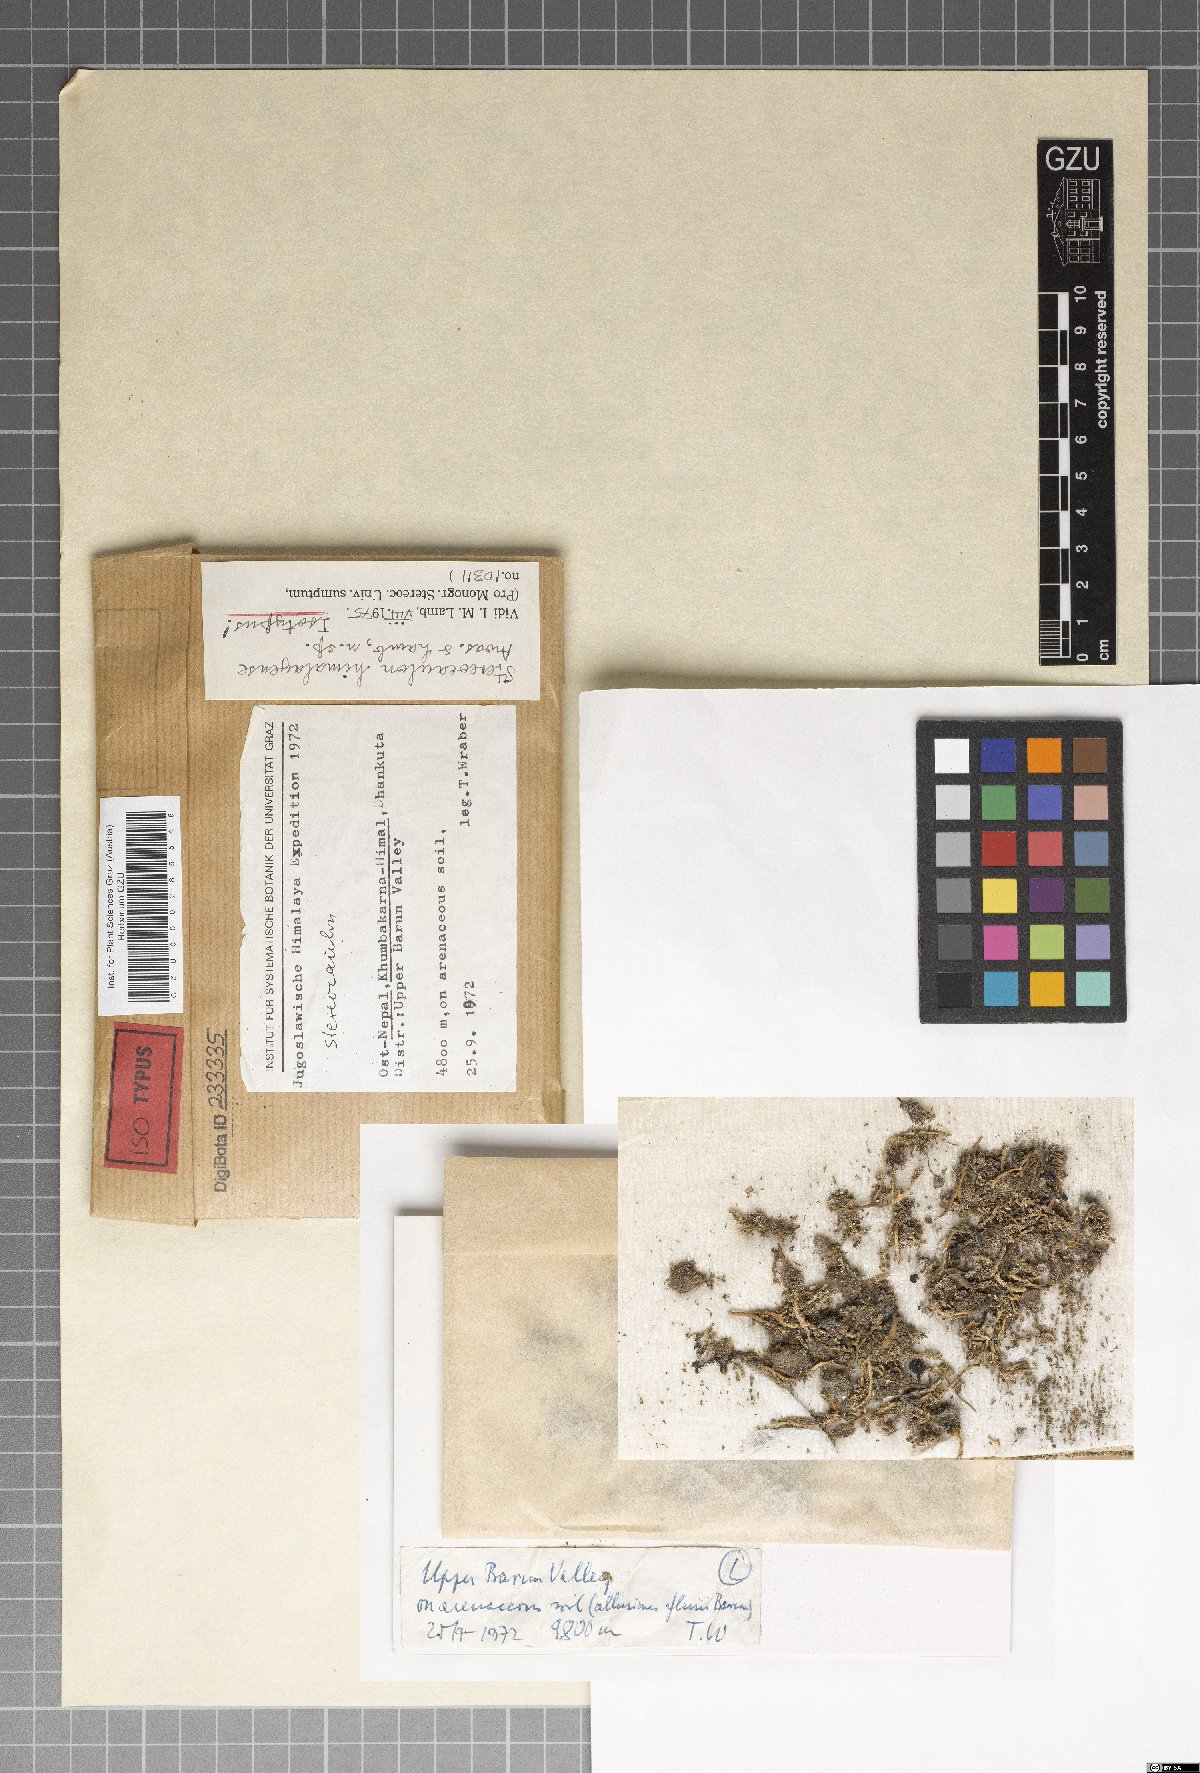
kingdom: Fungi
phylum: Ascomycota
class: Lecanoromycetes
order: Lecanorales
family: Stereocaulaceae
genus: Stereocaulon
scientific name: Stereocaulon
